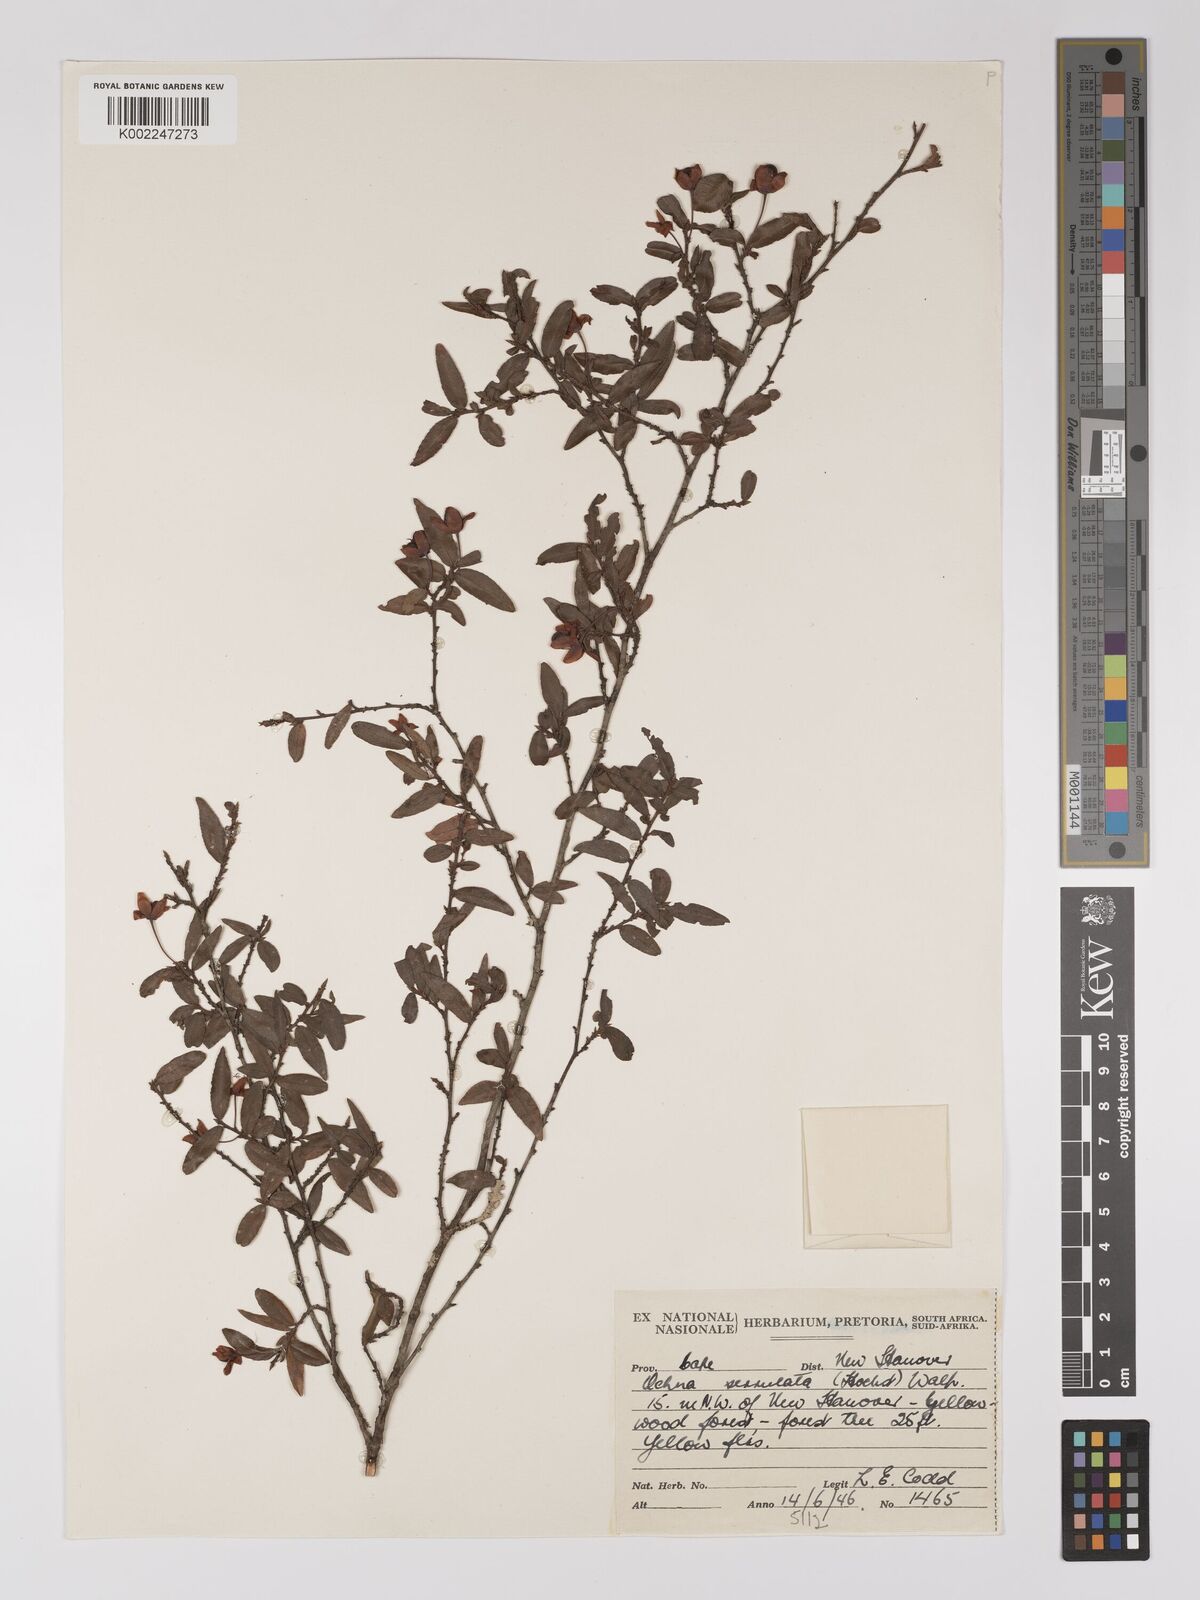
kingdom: Plantae
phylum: Tracheophyta
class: Magnoliopsida
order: Malpighiales
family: Ochnaceae
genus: Ochna
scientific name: Ochna gamostigmata
